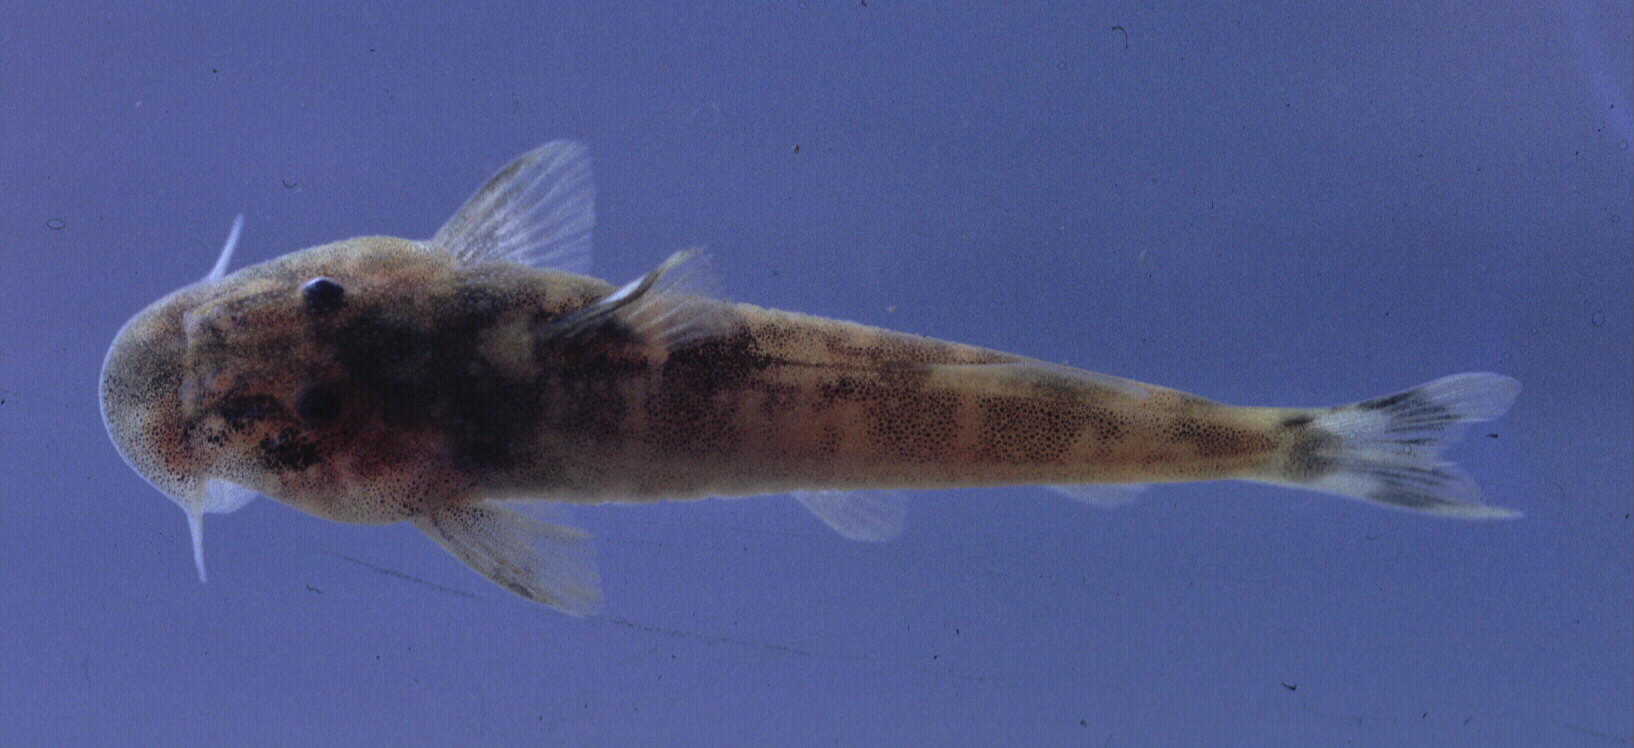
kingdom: Animalia
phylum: Chordata
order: Siluriformes
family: Mochokidae
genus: Chiloglanis
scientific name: Chiloglanis
